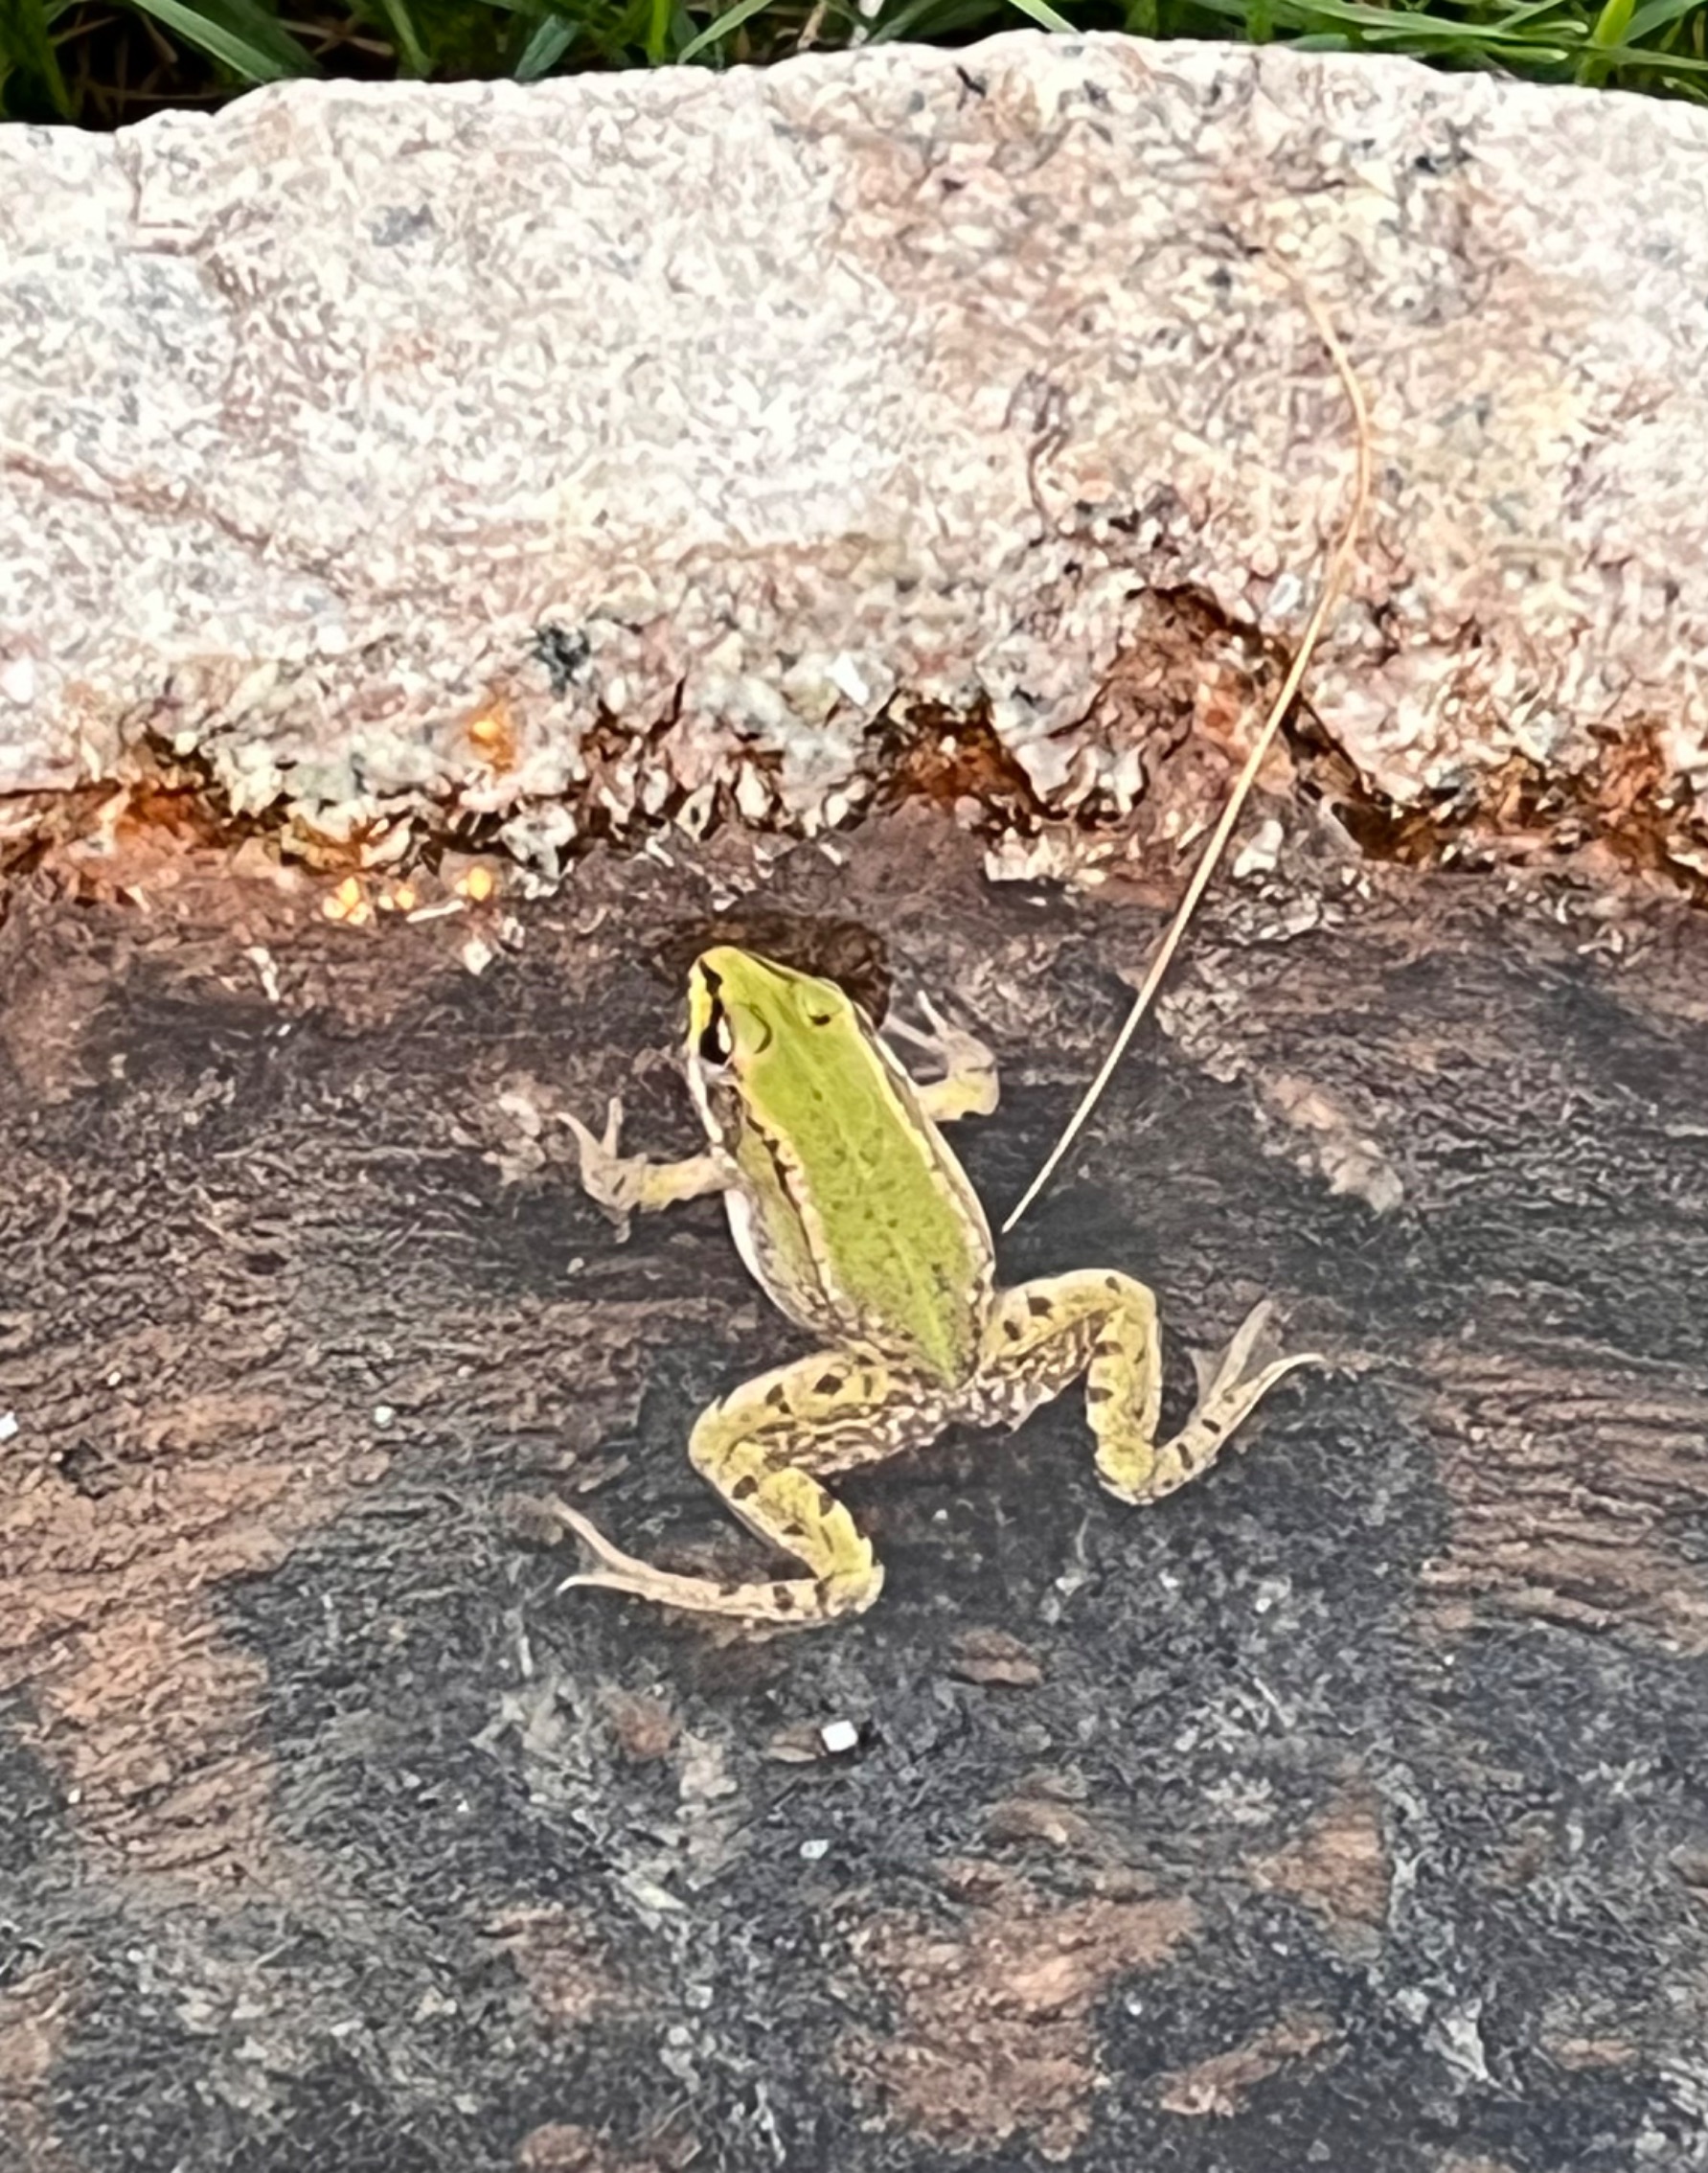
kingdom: Animalia
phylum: Chordata
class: Amphibia
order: Anura
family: Ranidae
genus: Pelophylax
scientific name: Pelophylax lessonae
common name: Grøn frø
